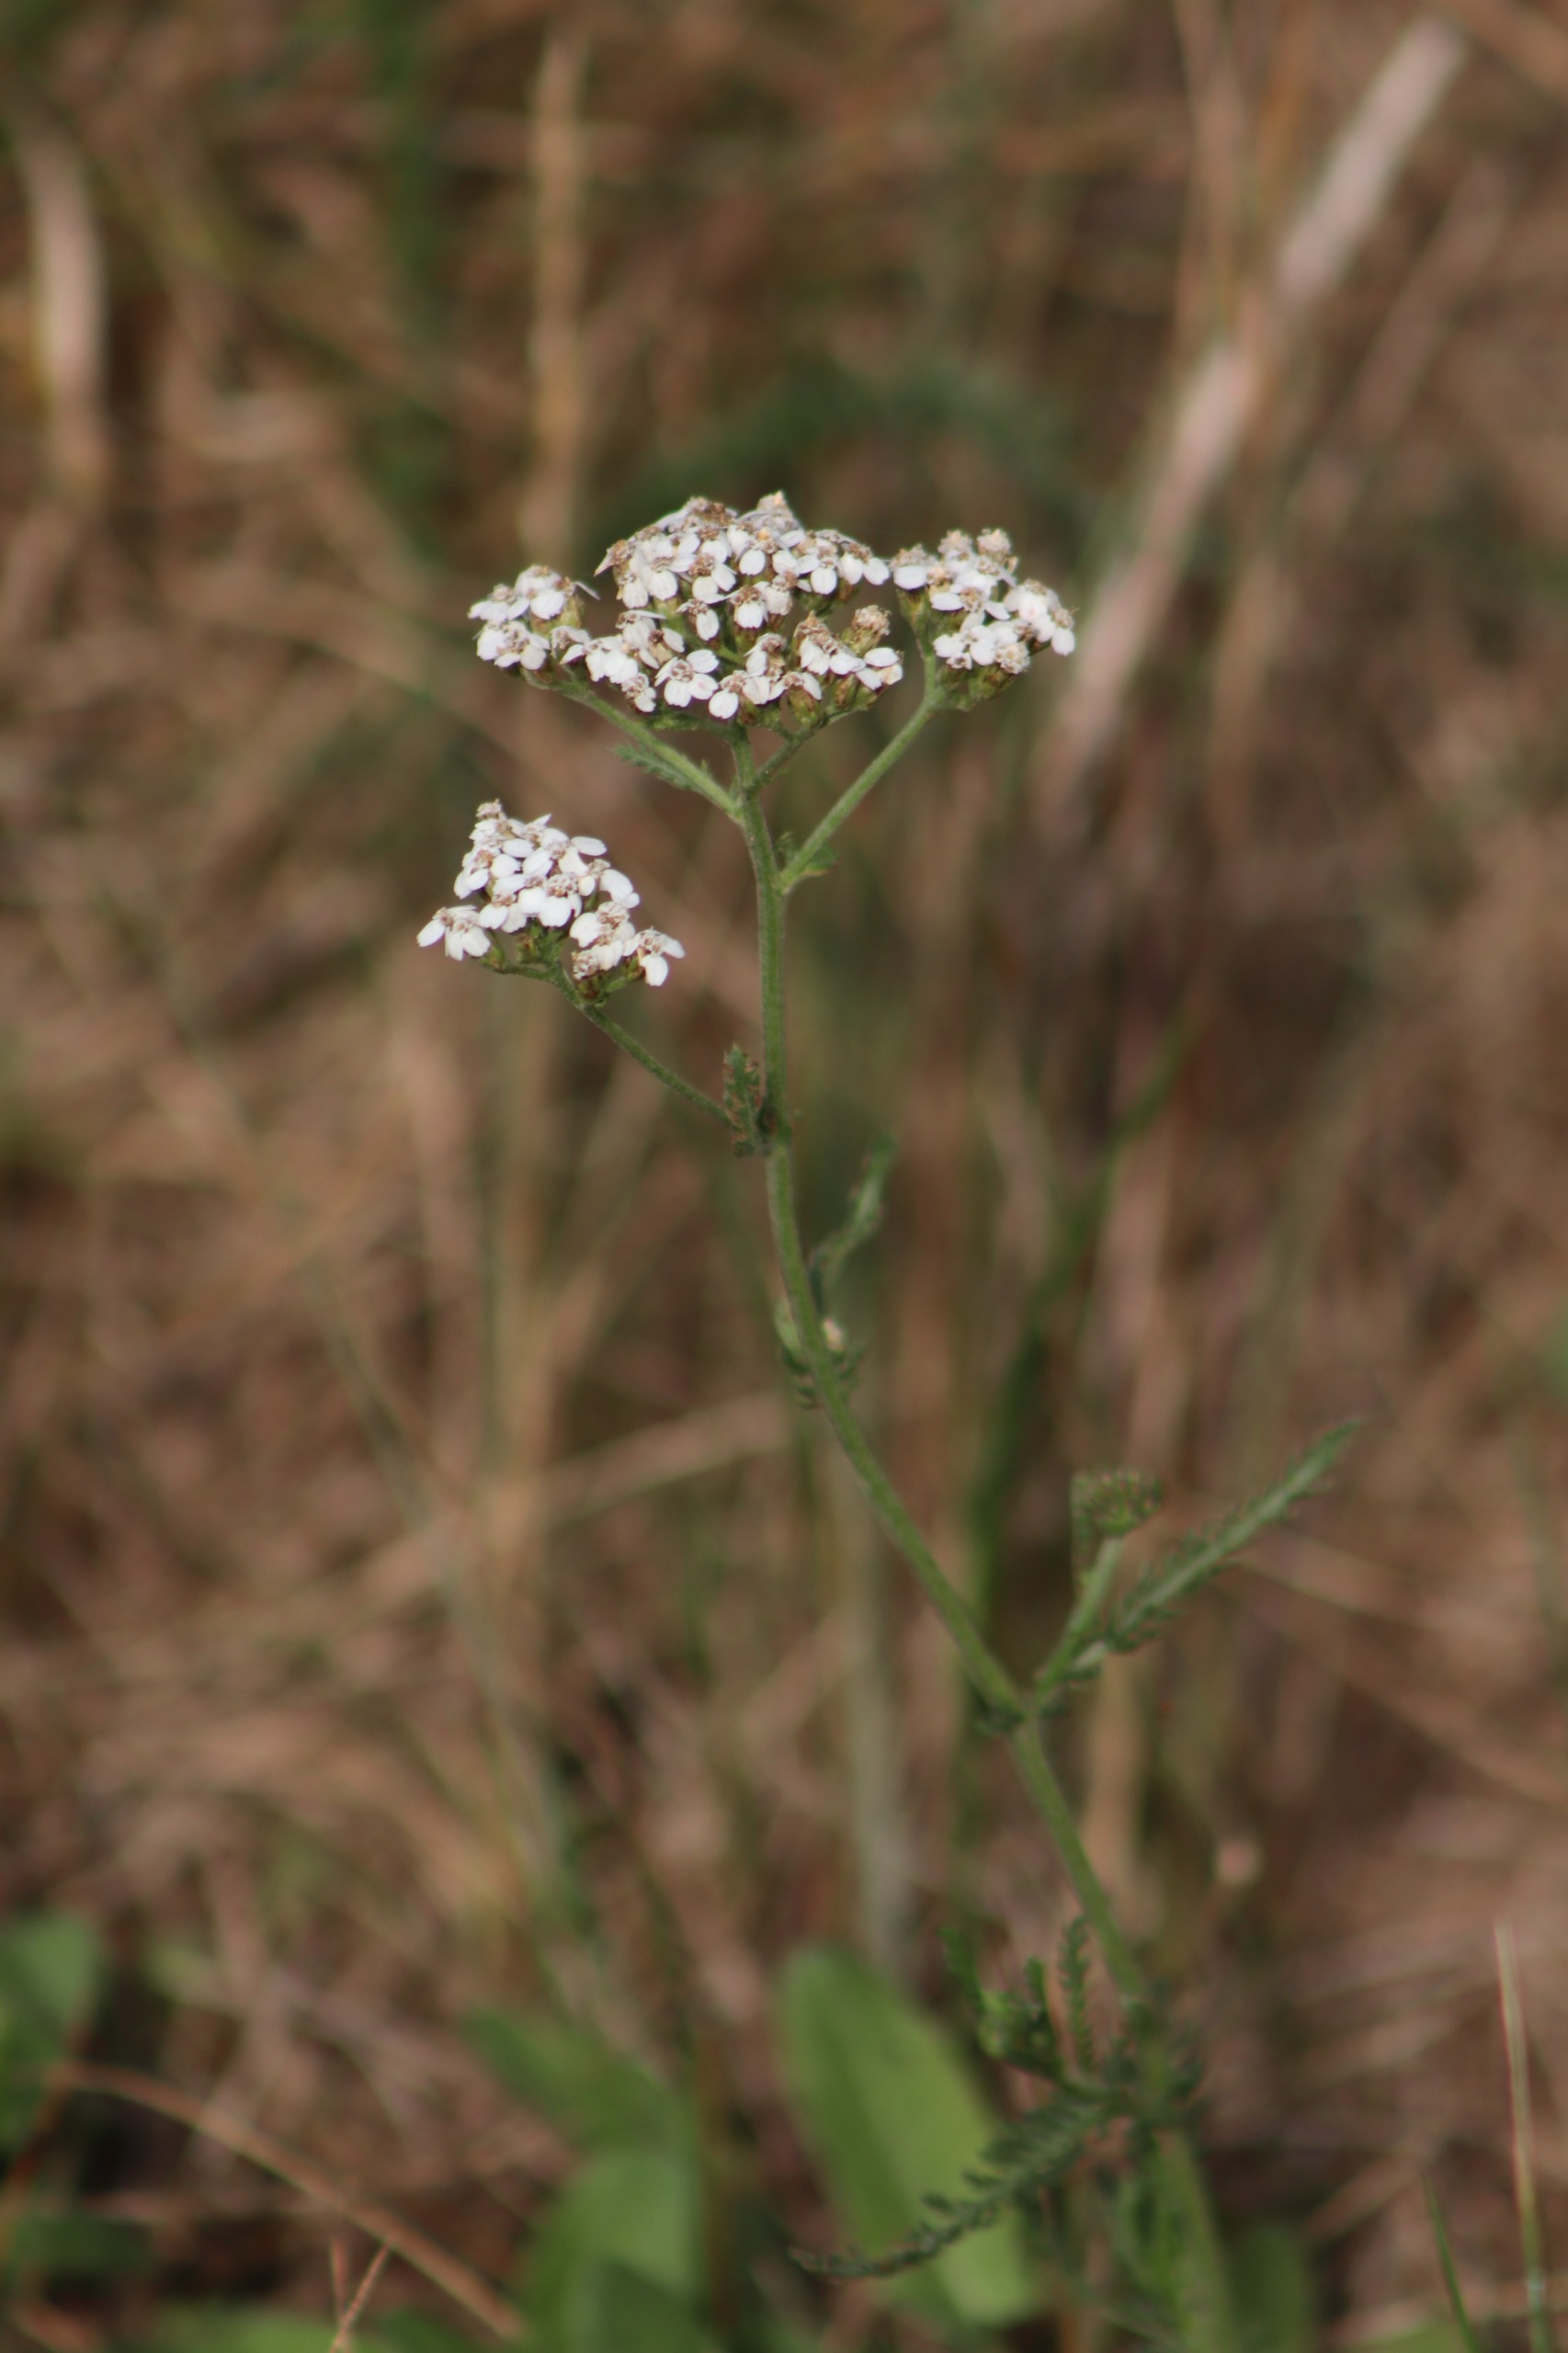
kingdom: Plantae
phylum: Tracheophyta
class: Magnoliopsida
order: Asterales
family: Asteraceae
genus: Achillea
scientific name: Achillea millefolium
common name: Almindelig røllike
